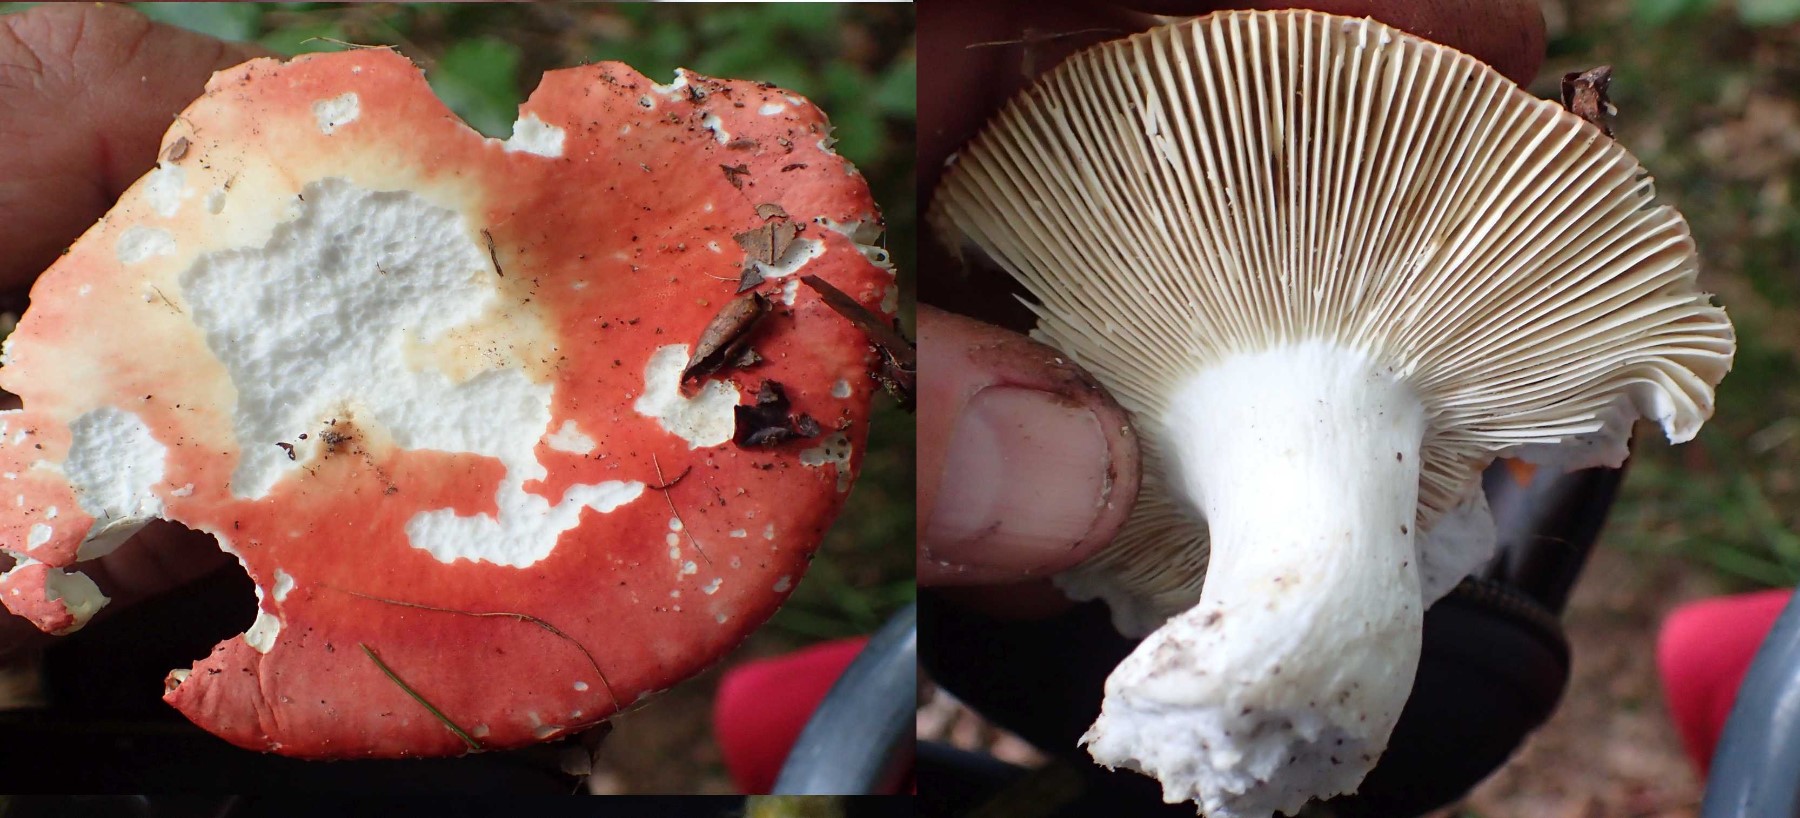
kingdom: Fungi
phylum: Basidiomycota
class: Agaricomycetes
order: Russulales
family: Russulaceae
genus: Russula
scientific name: Russula
